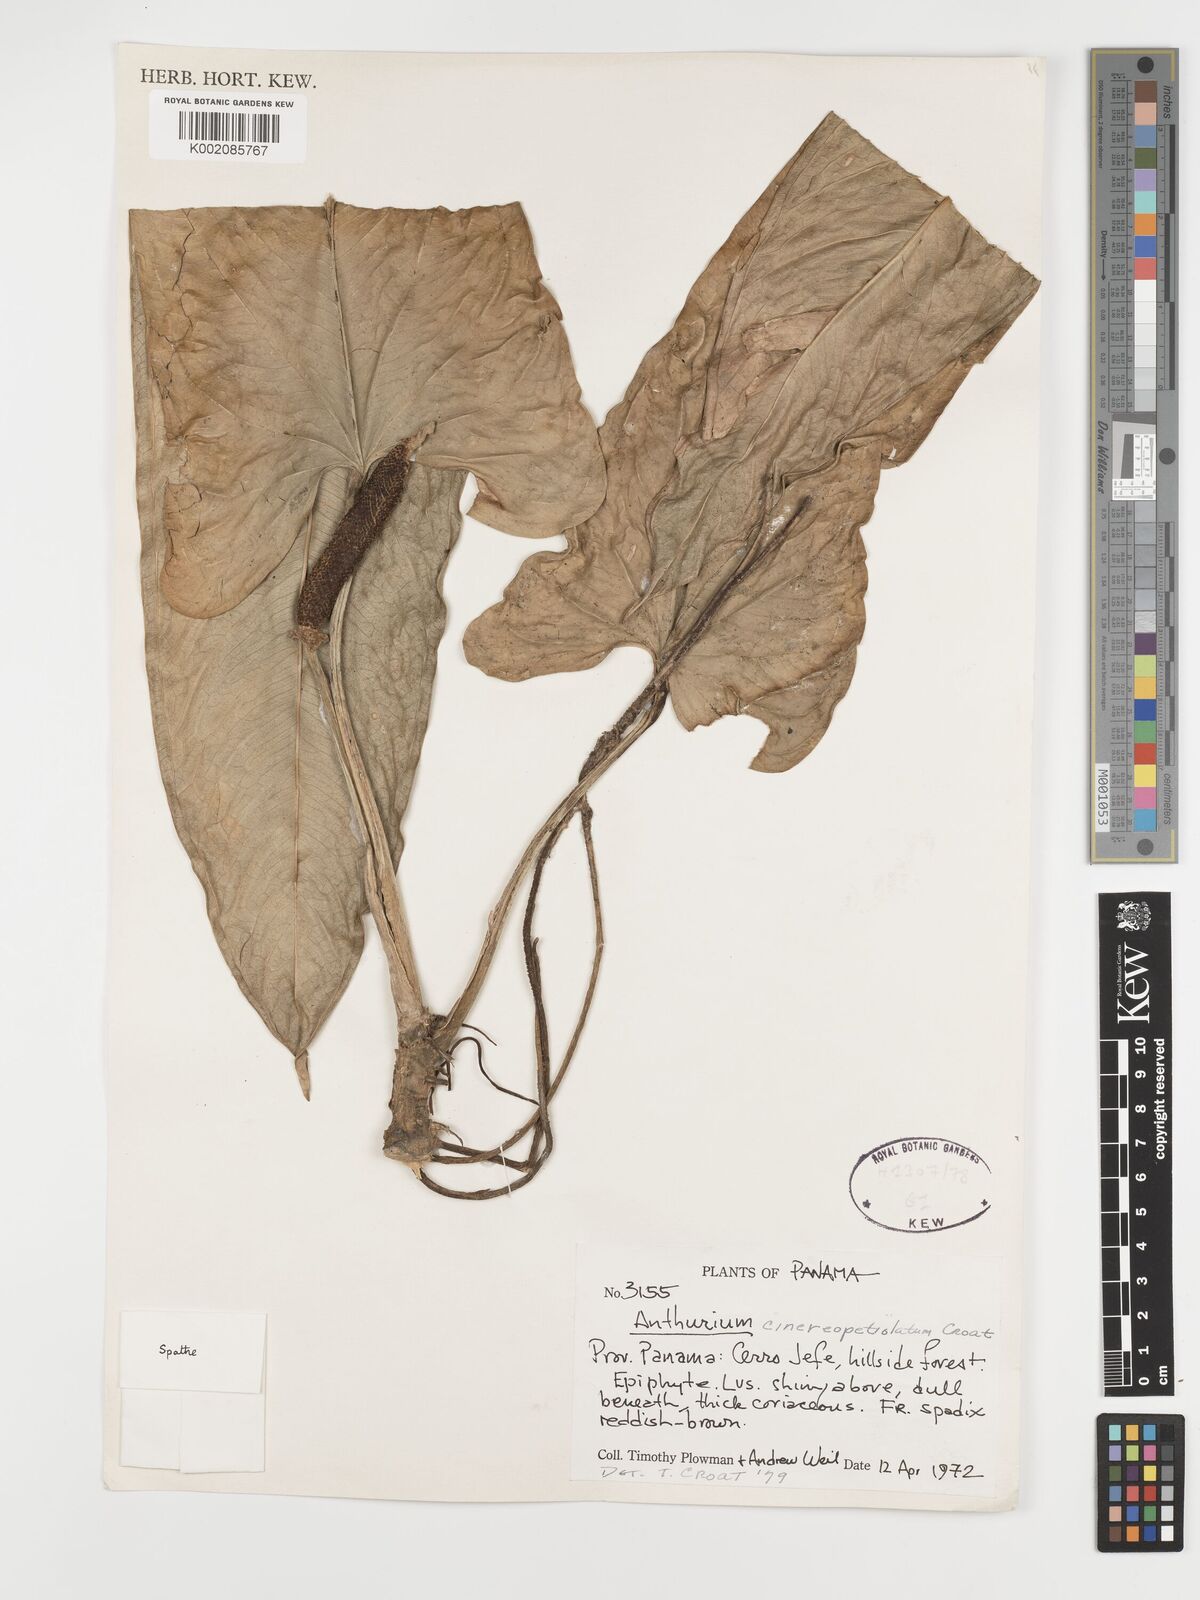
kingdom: Plantae
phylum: Tracheophyta
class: Liliopsida
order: Alismatales
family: Araceae
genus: Anthurium
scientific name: Anthurium cinereopetiolatum
